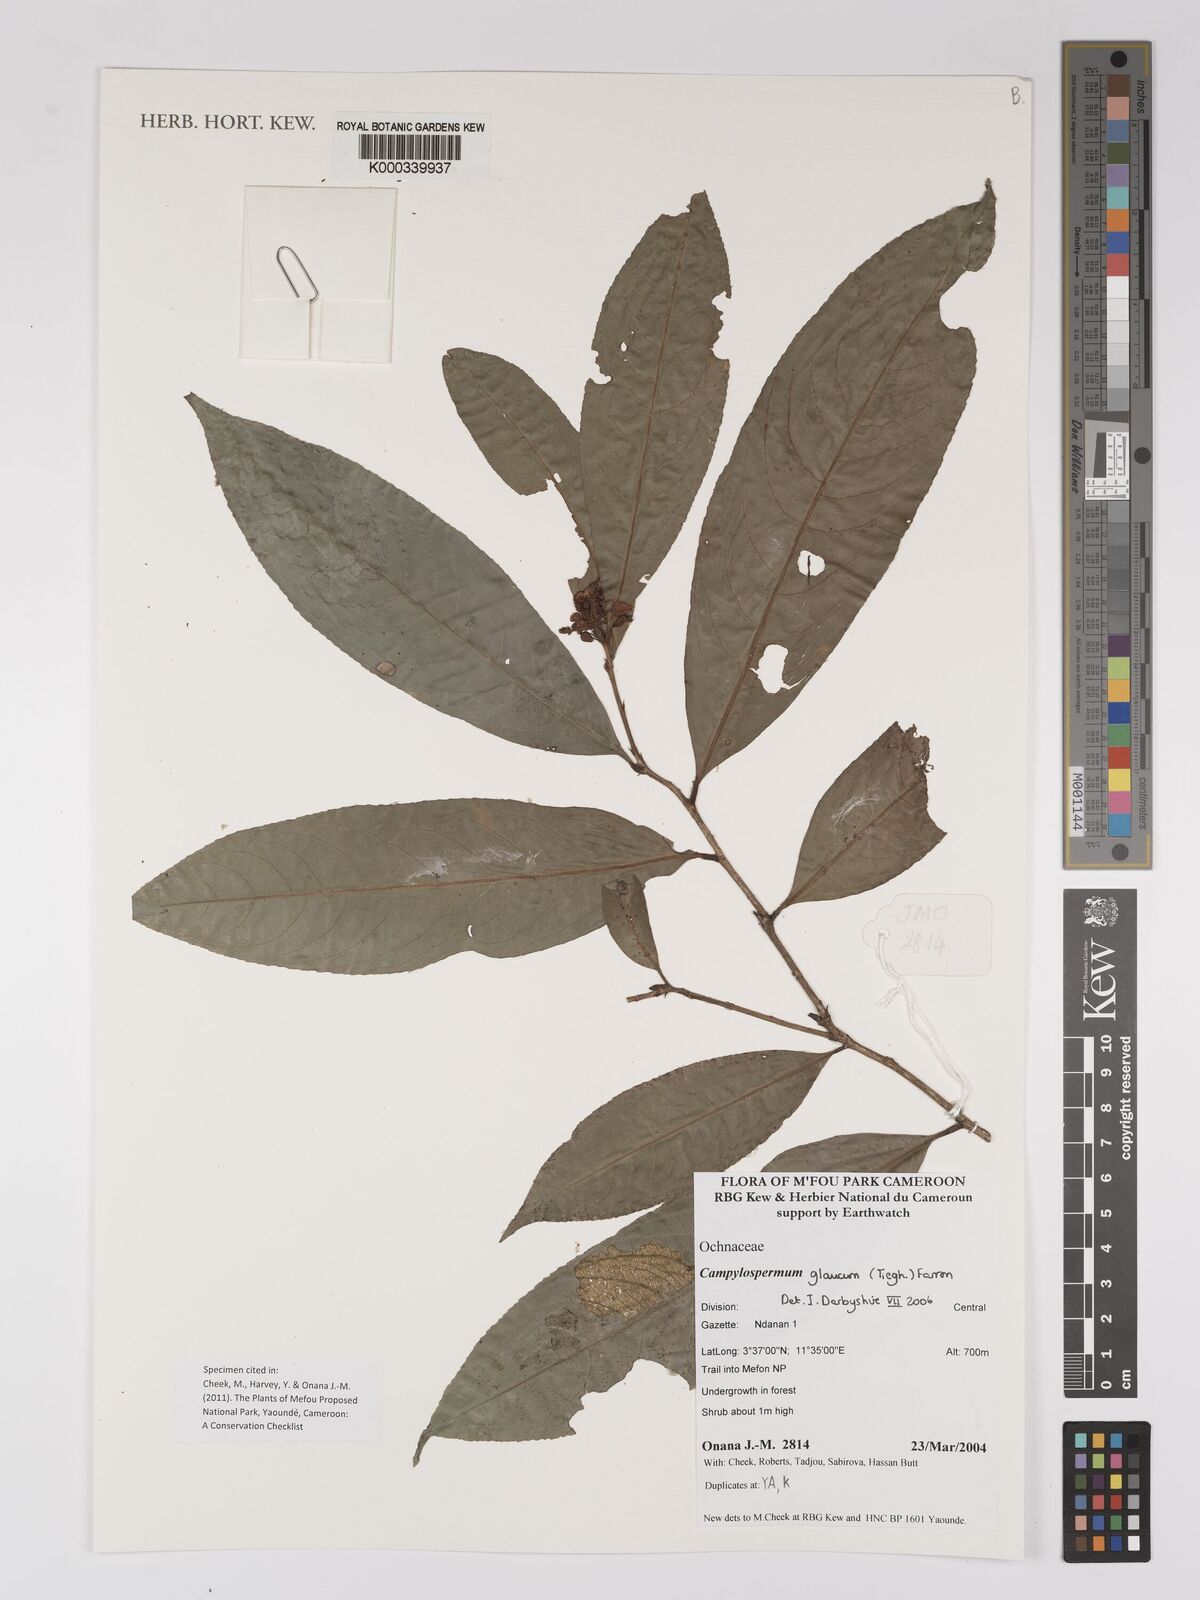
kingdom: Plantae
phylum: Tracheophyta
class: Magnoliopsida
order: Malpighiales
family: Ochnaceae
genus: Campylospermum
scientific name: Campylospermum glaucum
